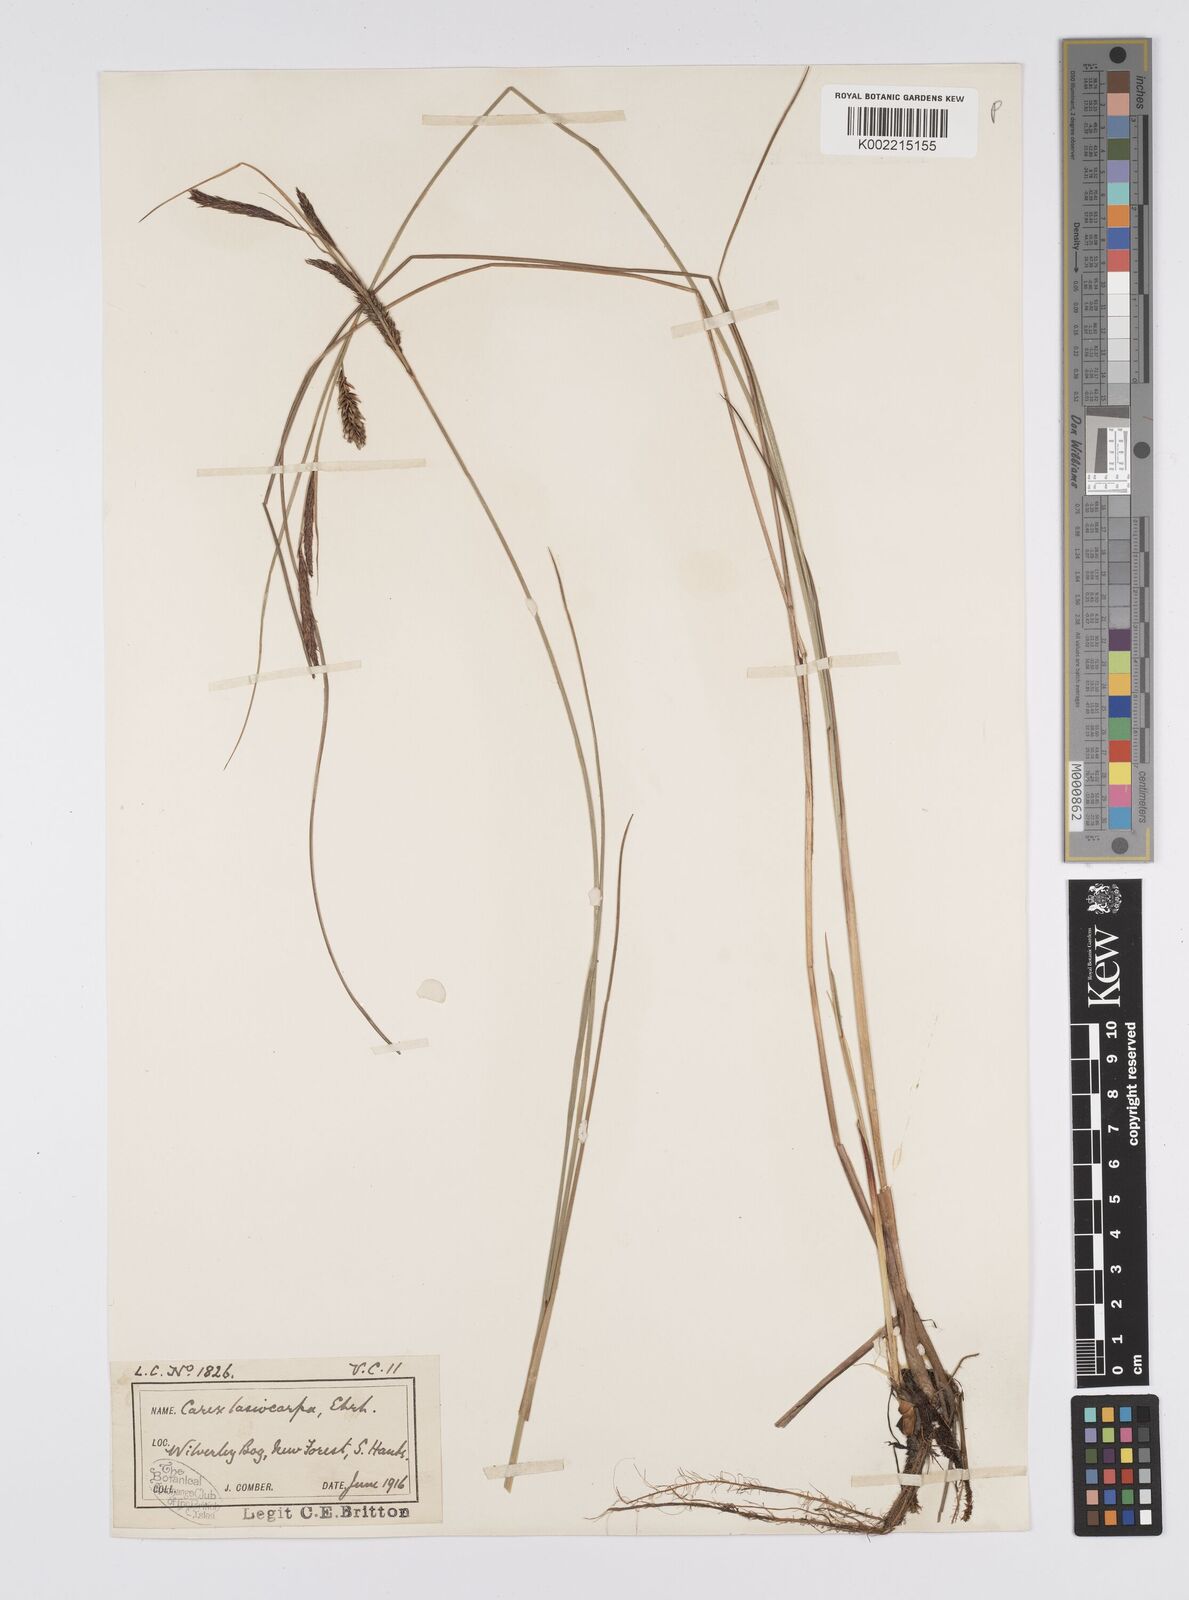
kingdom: Plantae
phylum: Tracheophyta
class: Liliopsida
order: Poales
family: Cyperaceae
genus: Carex
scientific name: Carex lasiocarpa
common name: Slender sedge
